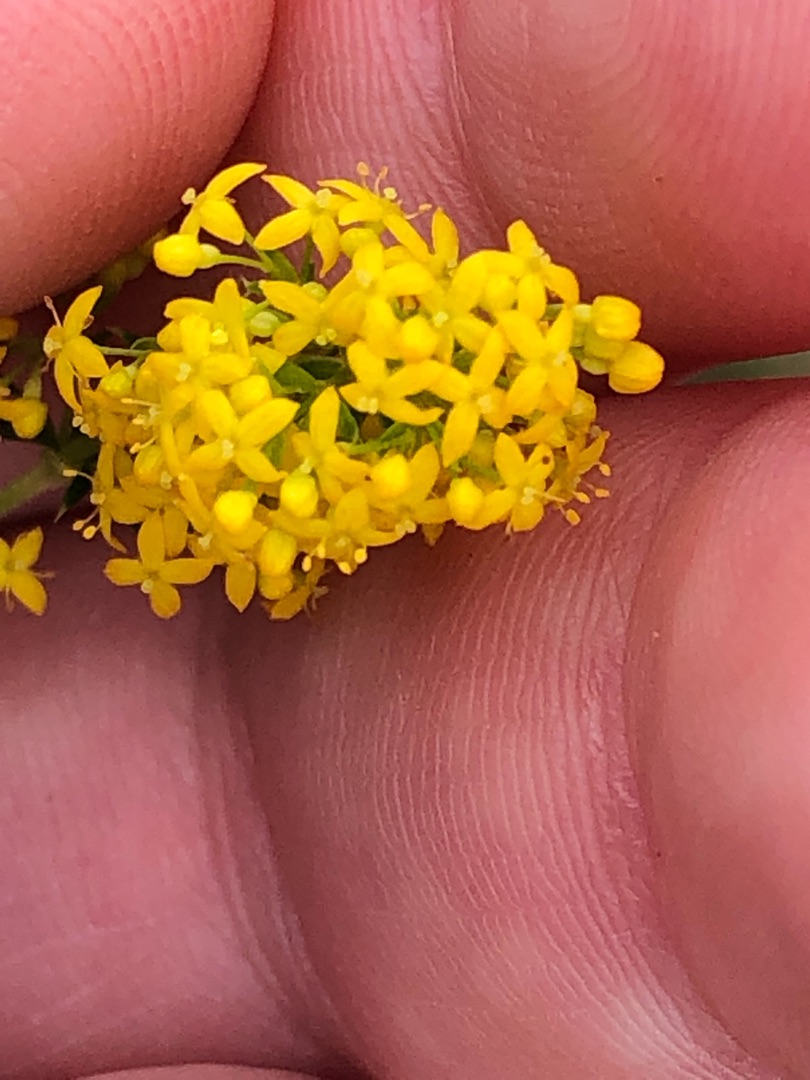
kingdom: Plantae
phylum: Tracheophyta
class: Magnoliopsida
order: Gentianales
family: Rubiaceae
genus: Galium
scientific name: Galium verum
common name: Gul snerre
